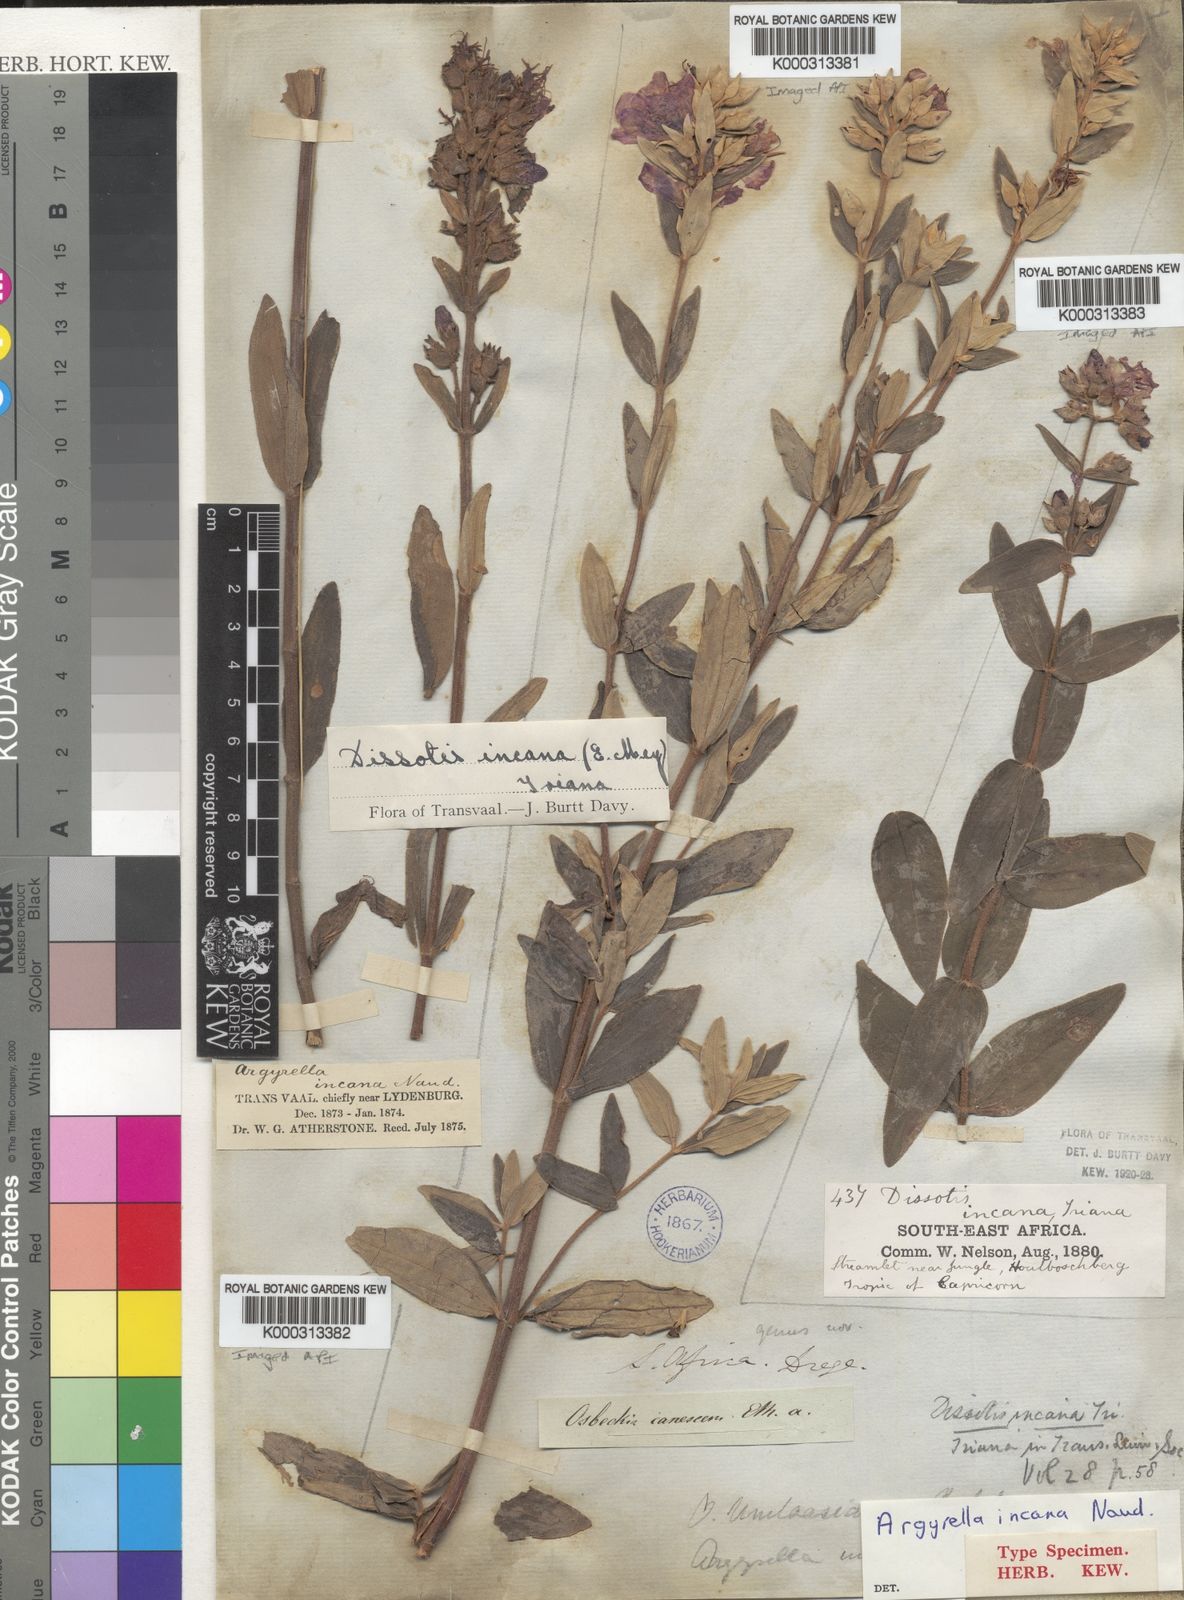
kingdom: Plantae
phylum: Tracheophyta
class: Magnoliopsida
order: Myrtales
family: Melastomataceae
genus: Heterotis
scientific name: Heterotis
